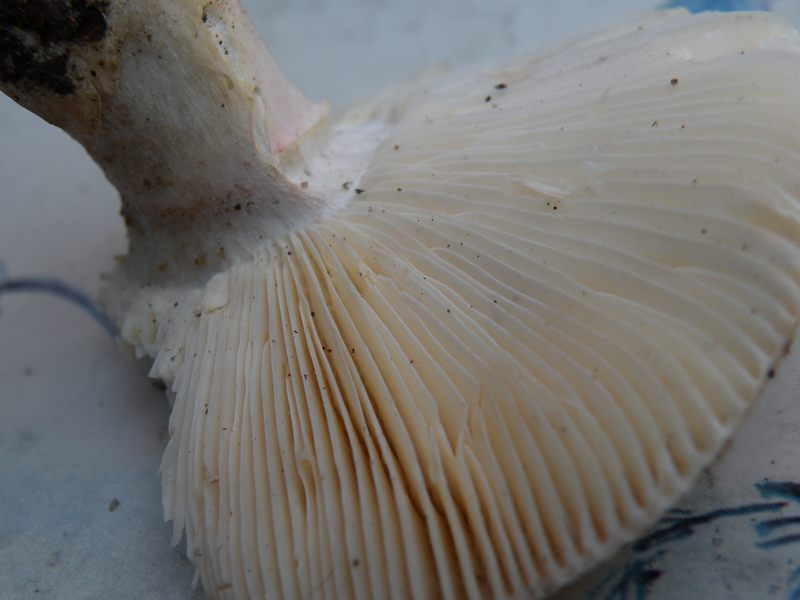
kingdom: Fungi
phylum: Basidiomycota
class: Agaricomycetes
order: Russulales
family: Russulaceae
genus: Russula
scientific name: Russula depallens
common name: falmende skørhat
